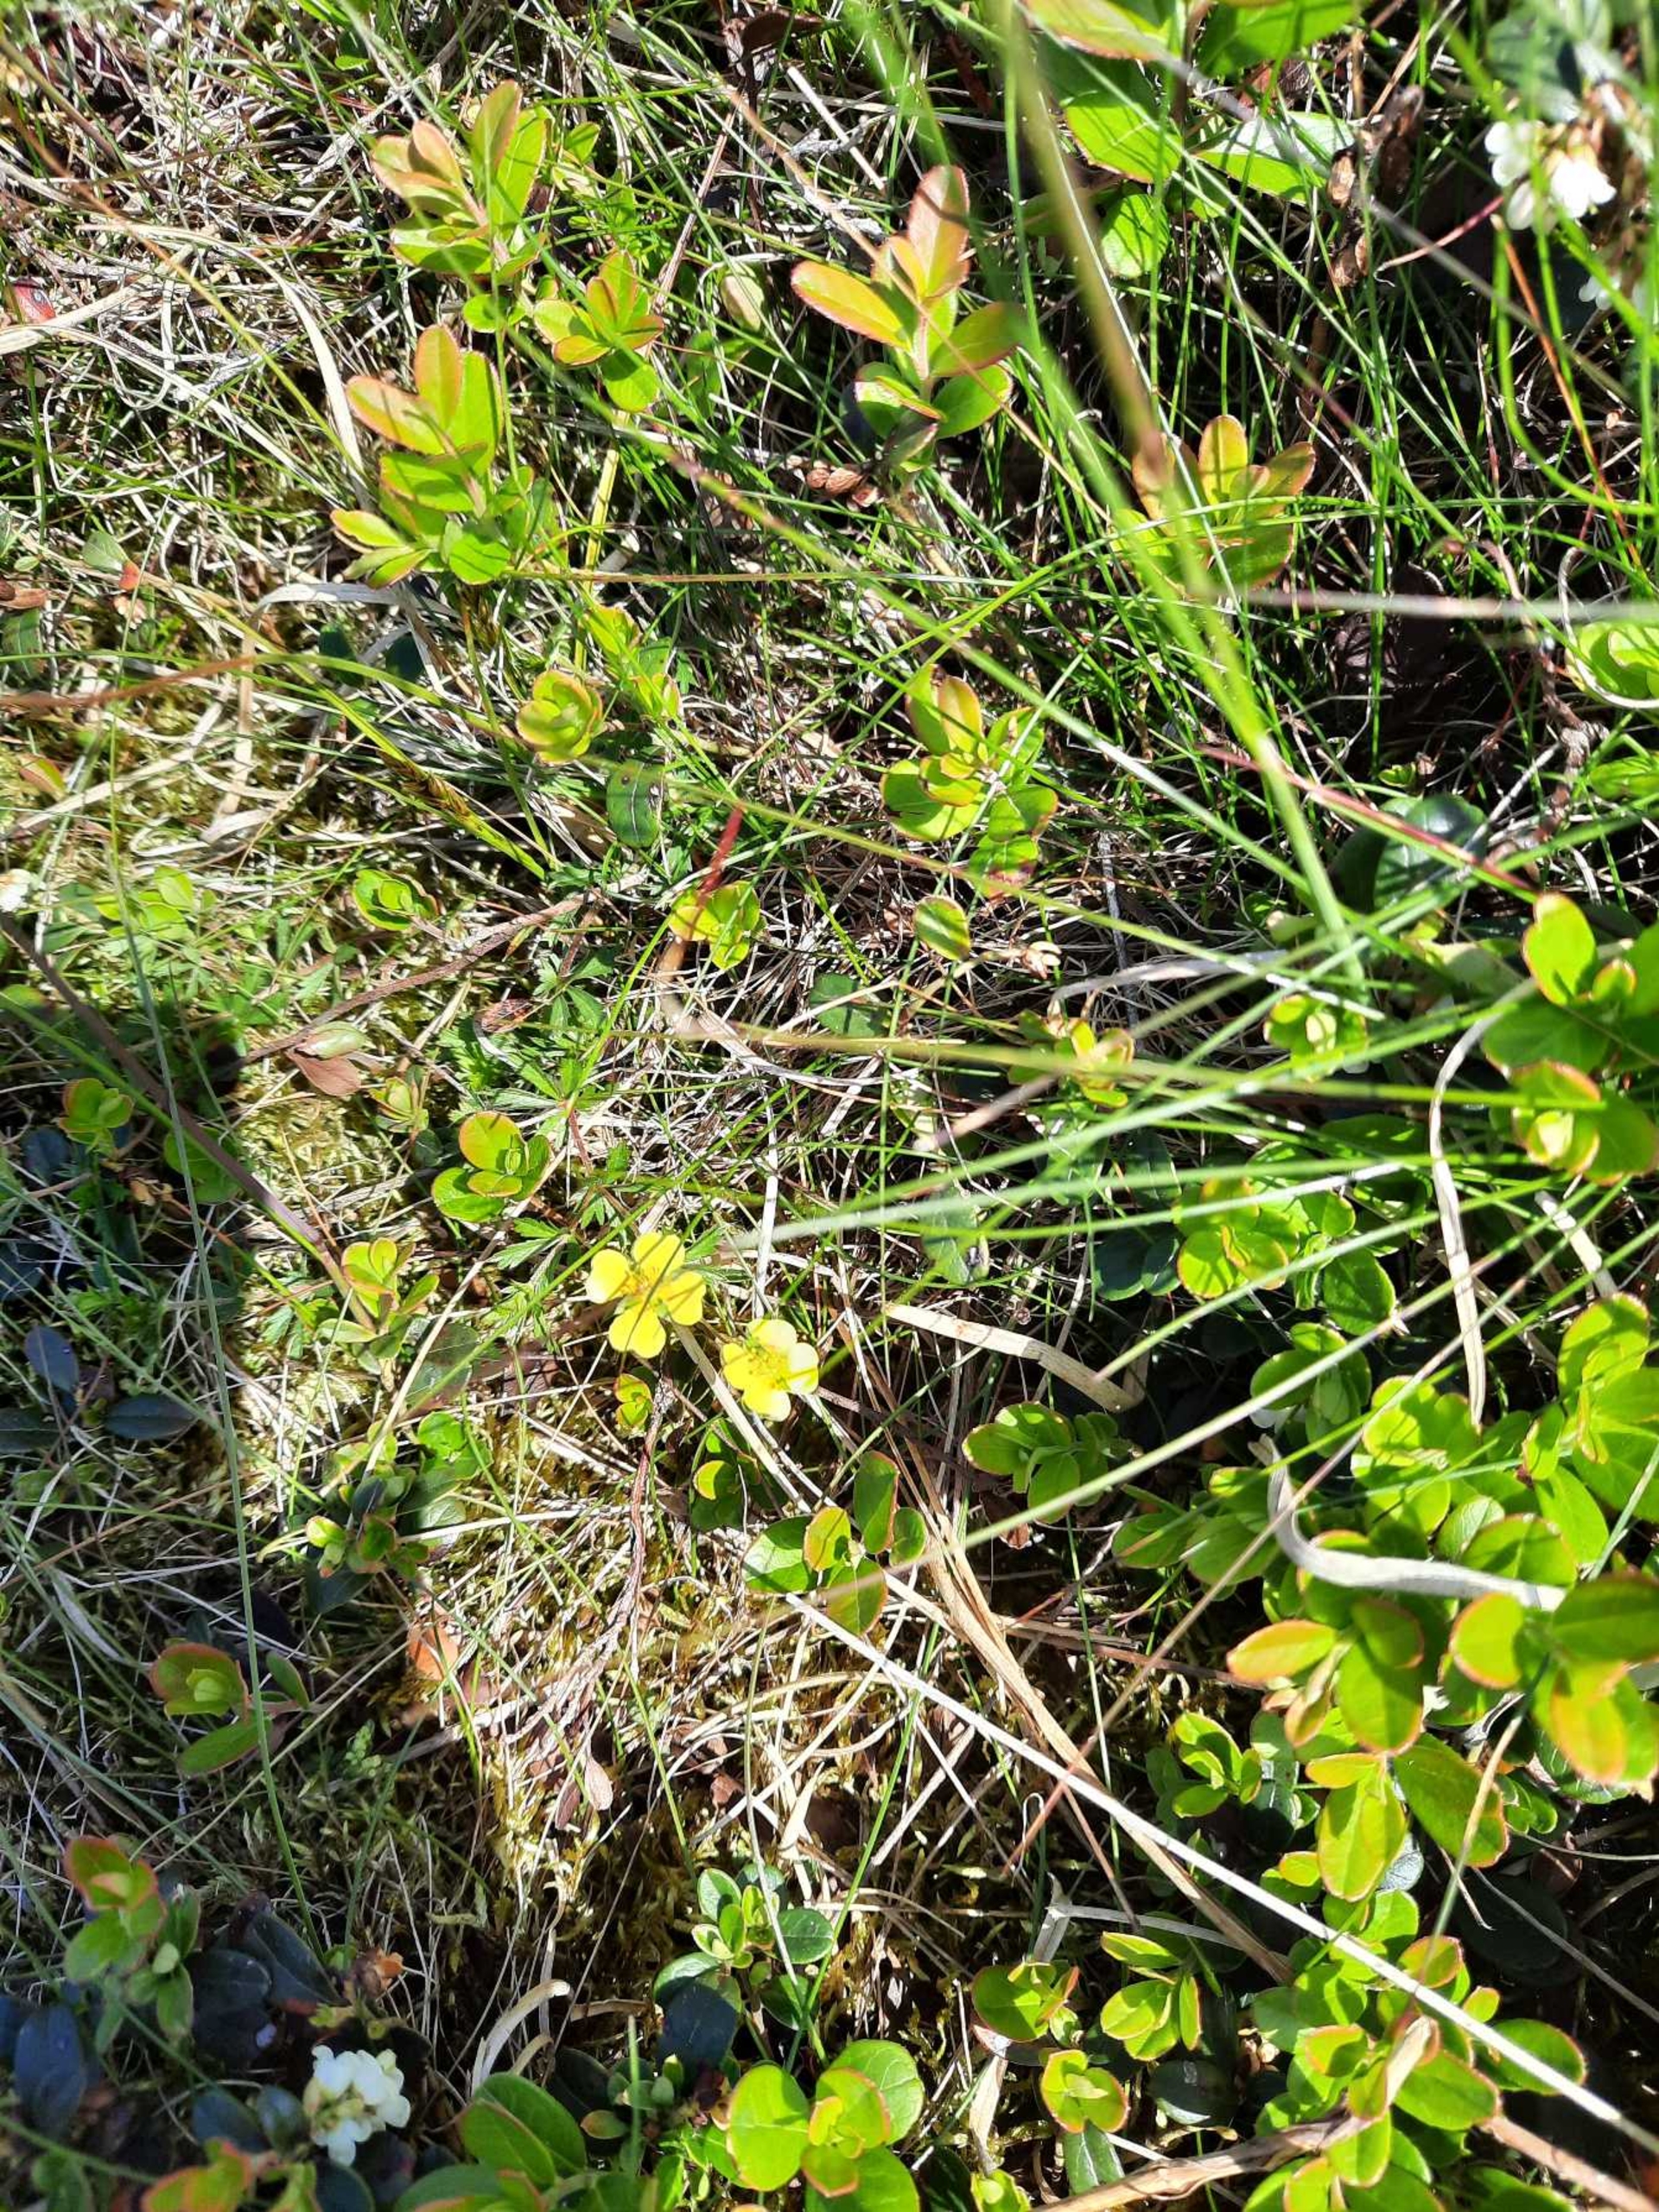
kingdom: Plantae
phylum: Tracheophyta
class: Magnoliopsida
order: Rosales
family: Rosaceae
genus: Potentilla
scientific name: Potentilla erecta
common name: Tormentil
